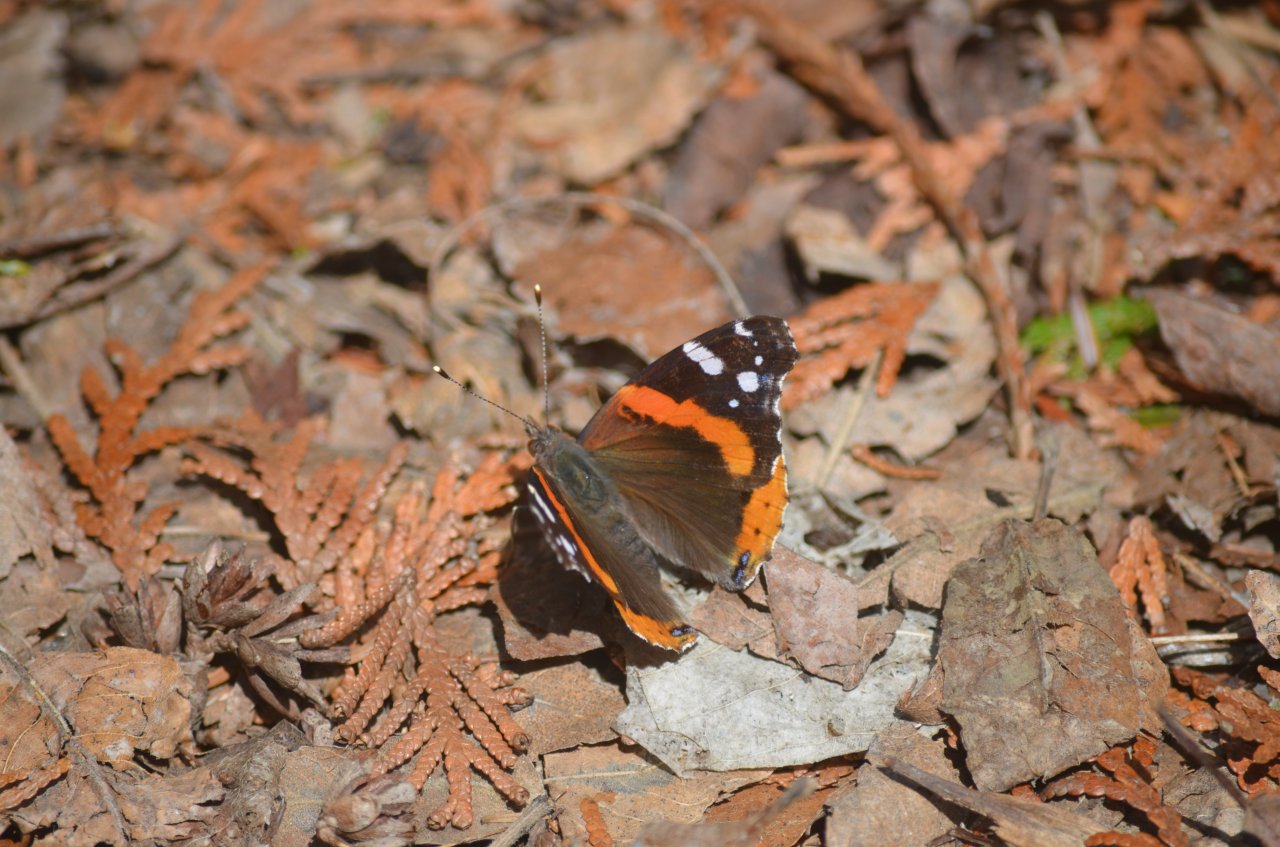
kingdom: Animalia
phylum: Arthropoda
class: Insecta
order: Lepidoptera
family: Nymphalidae
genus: Vanessa
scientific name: Vanessa atalanta
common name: Red Admiral
